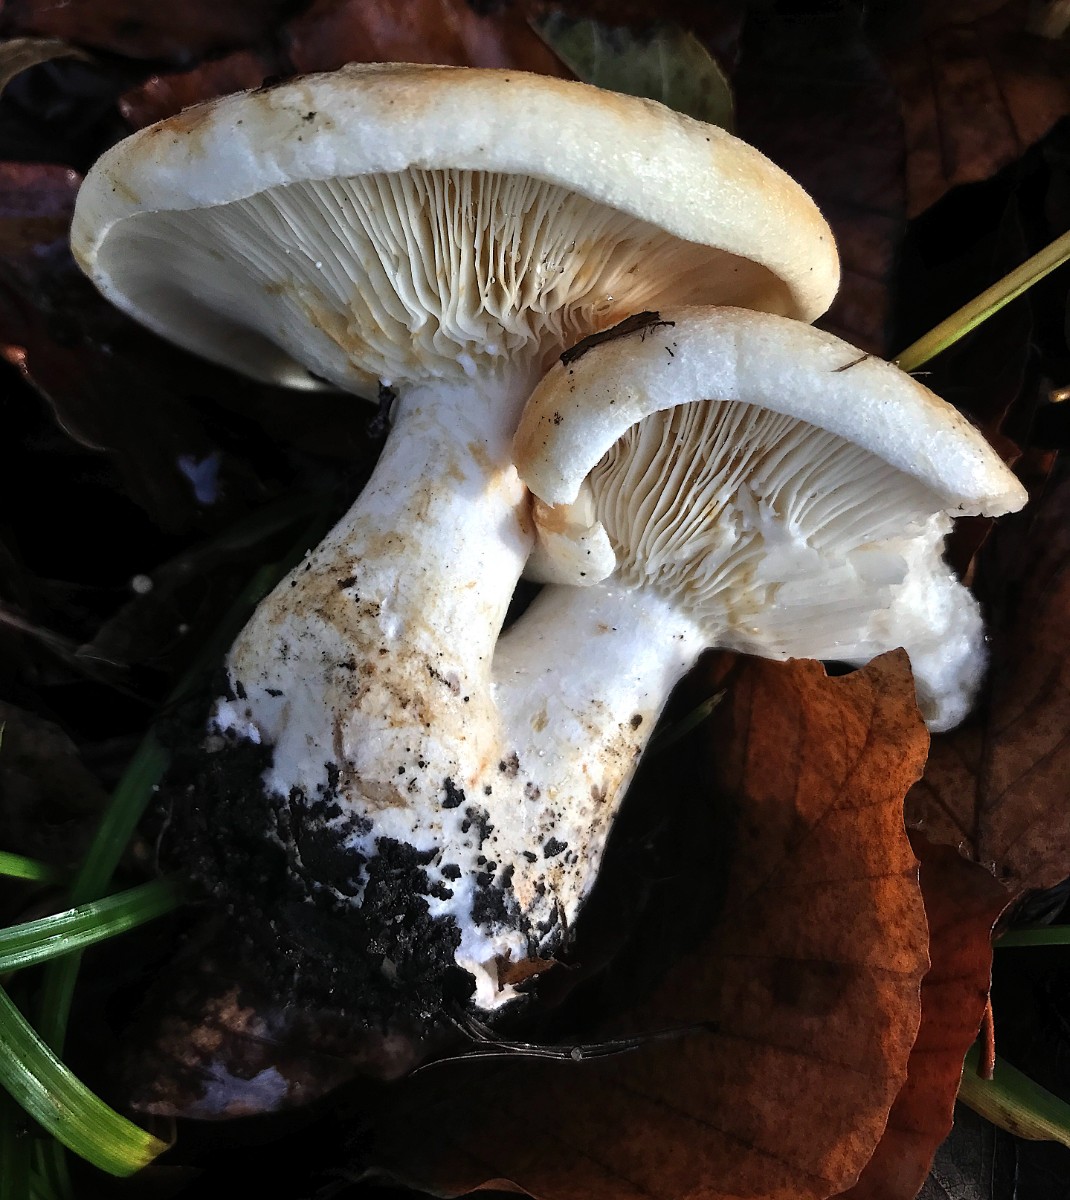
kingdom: Fungi
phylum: Basidiomycota
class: Agaricomycetes
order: Russulales
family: Russulaceae
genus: Lactarius
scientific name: Lactarius evosmus
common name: bæltet mælkehat
